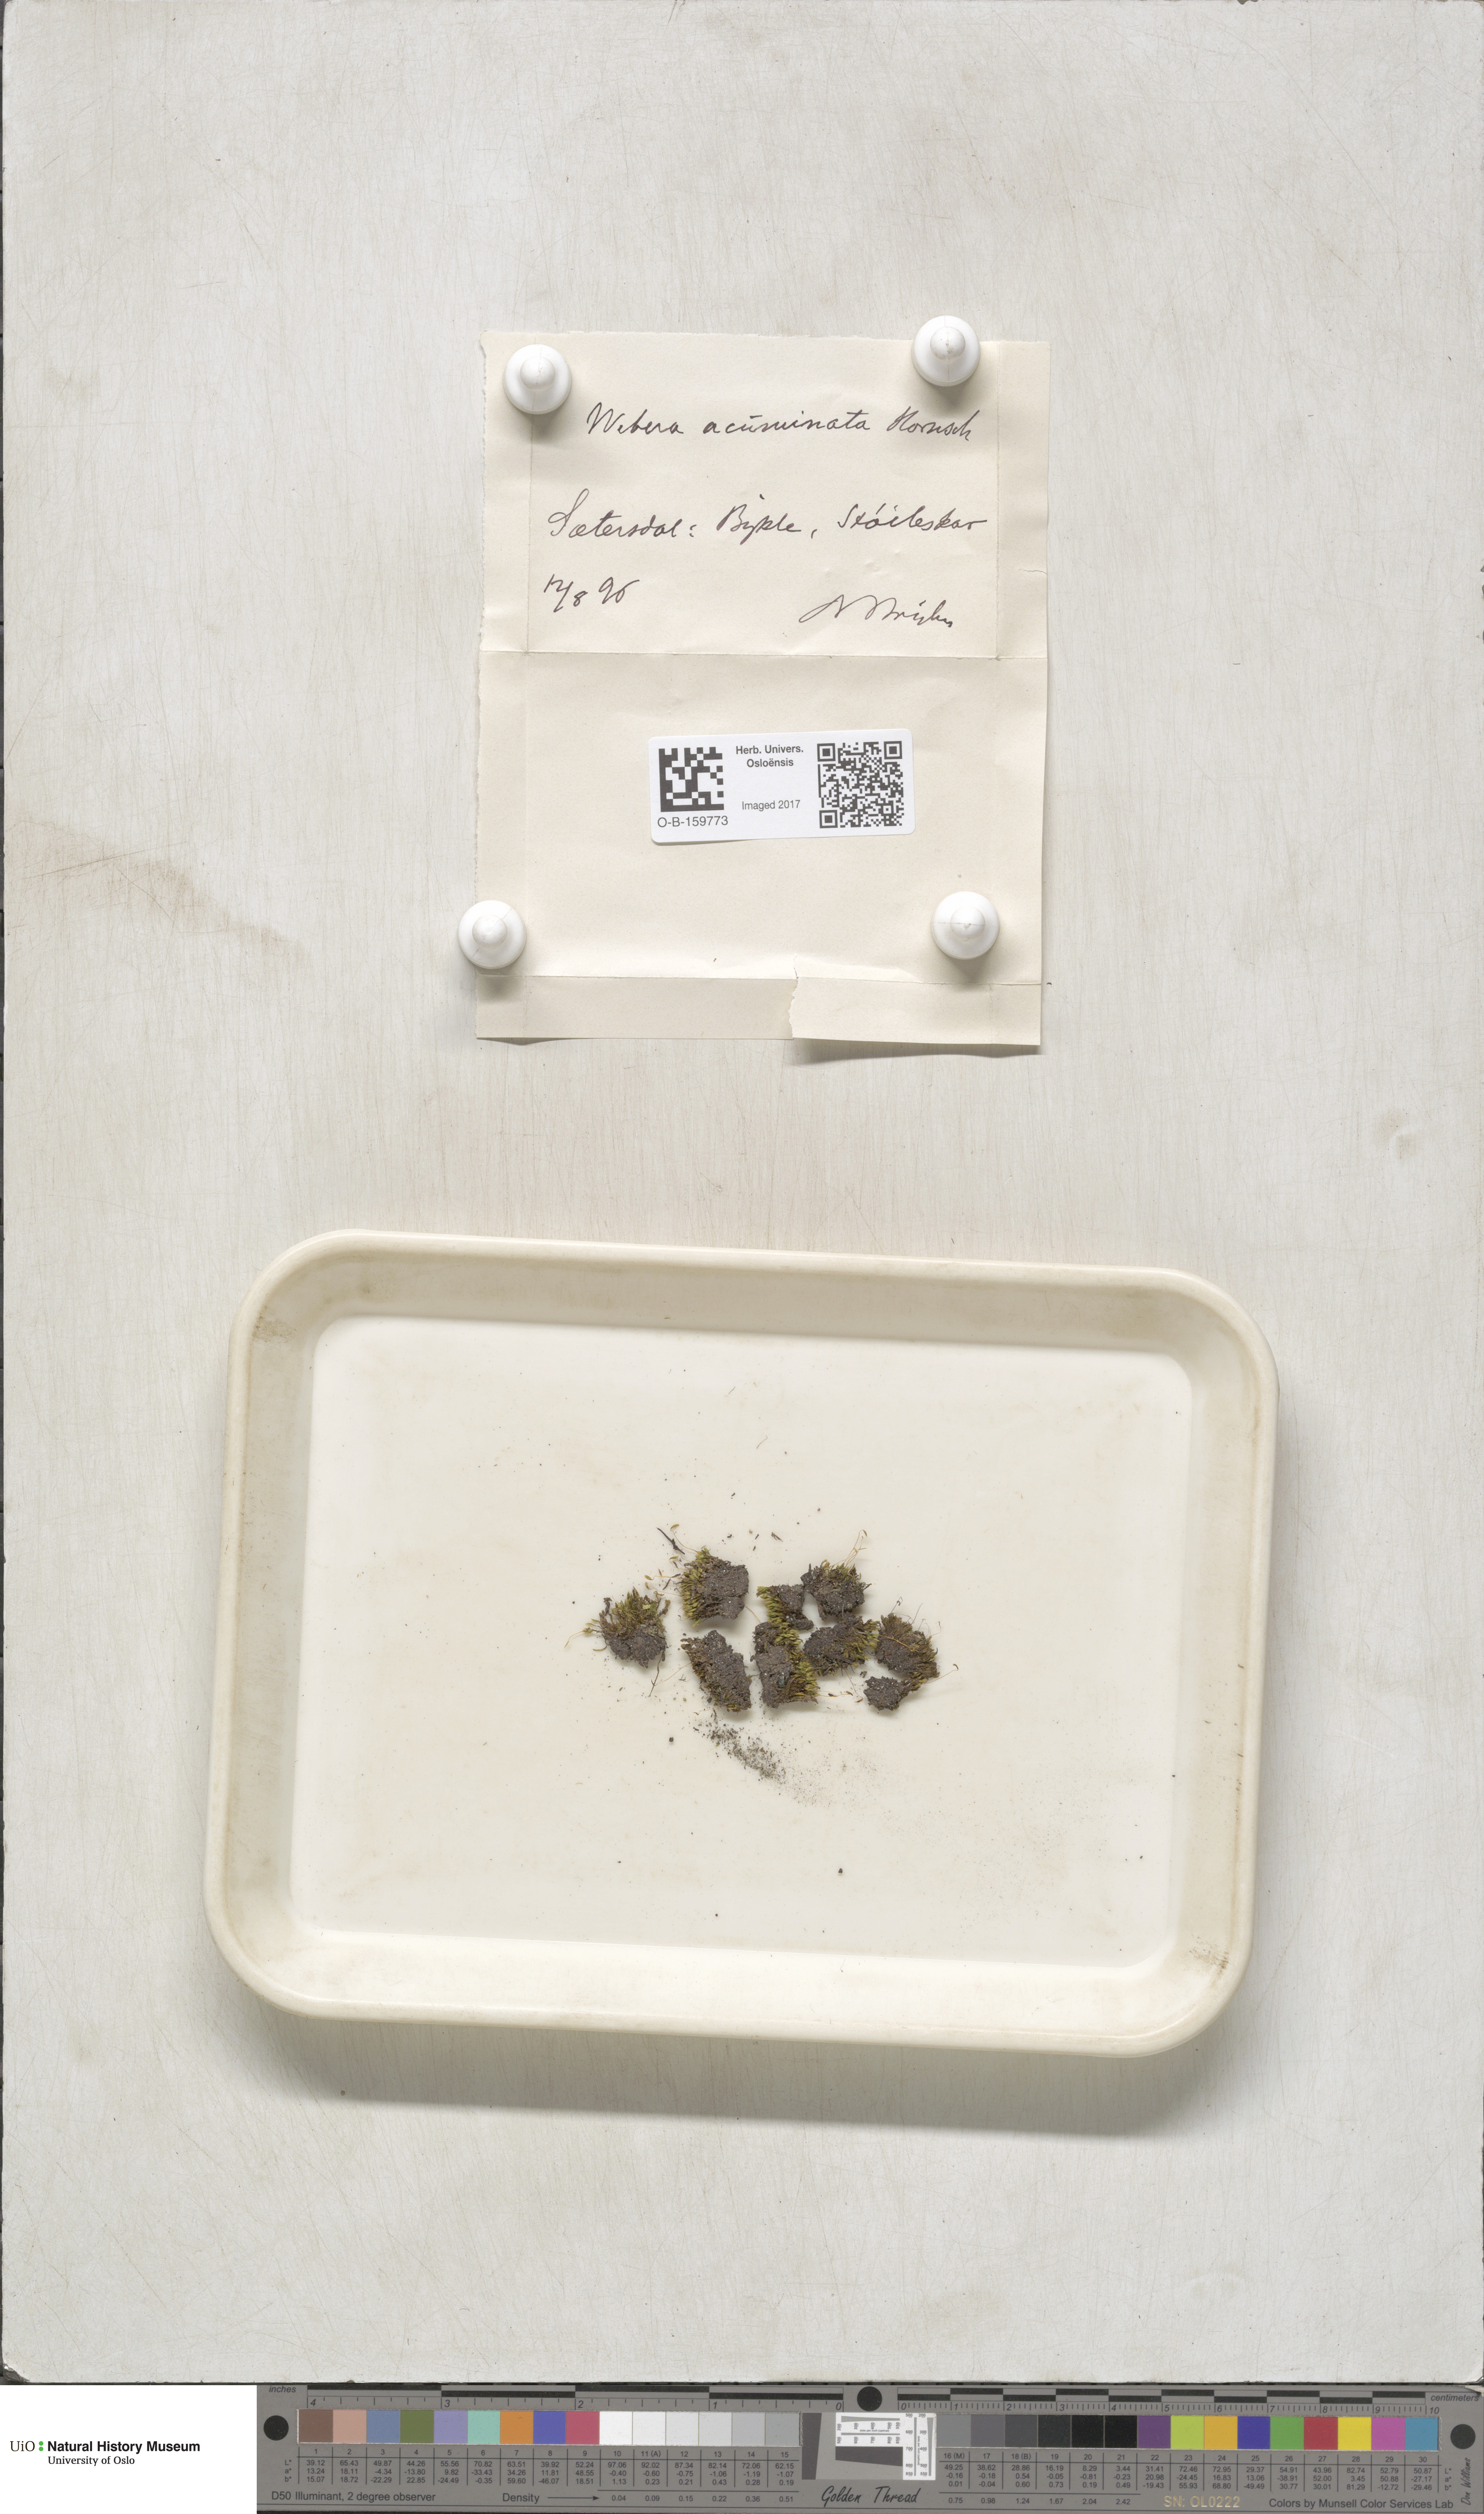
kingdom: Plantae
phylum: Bryophyta
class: Bryopsida
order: Bryales
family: Mniaceae
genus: Pohlia
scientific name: Pohlia elongata
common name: Long-fruited thread-moss
